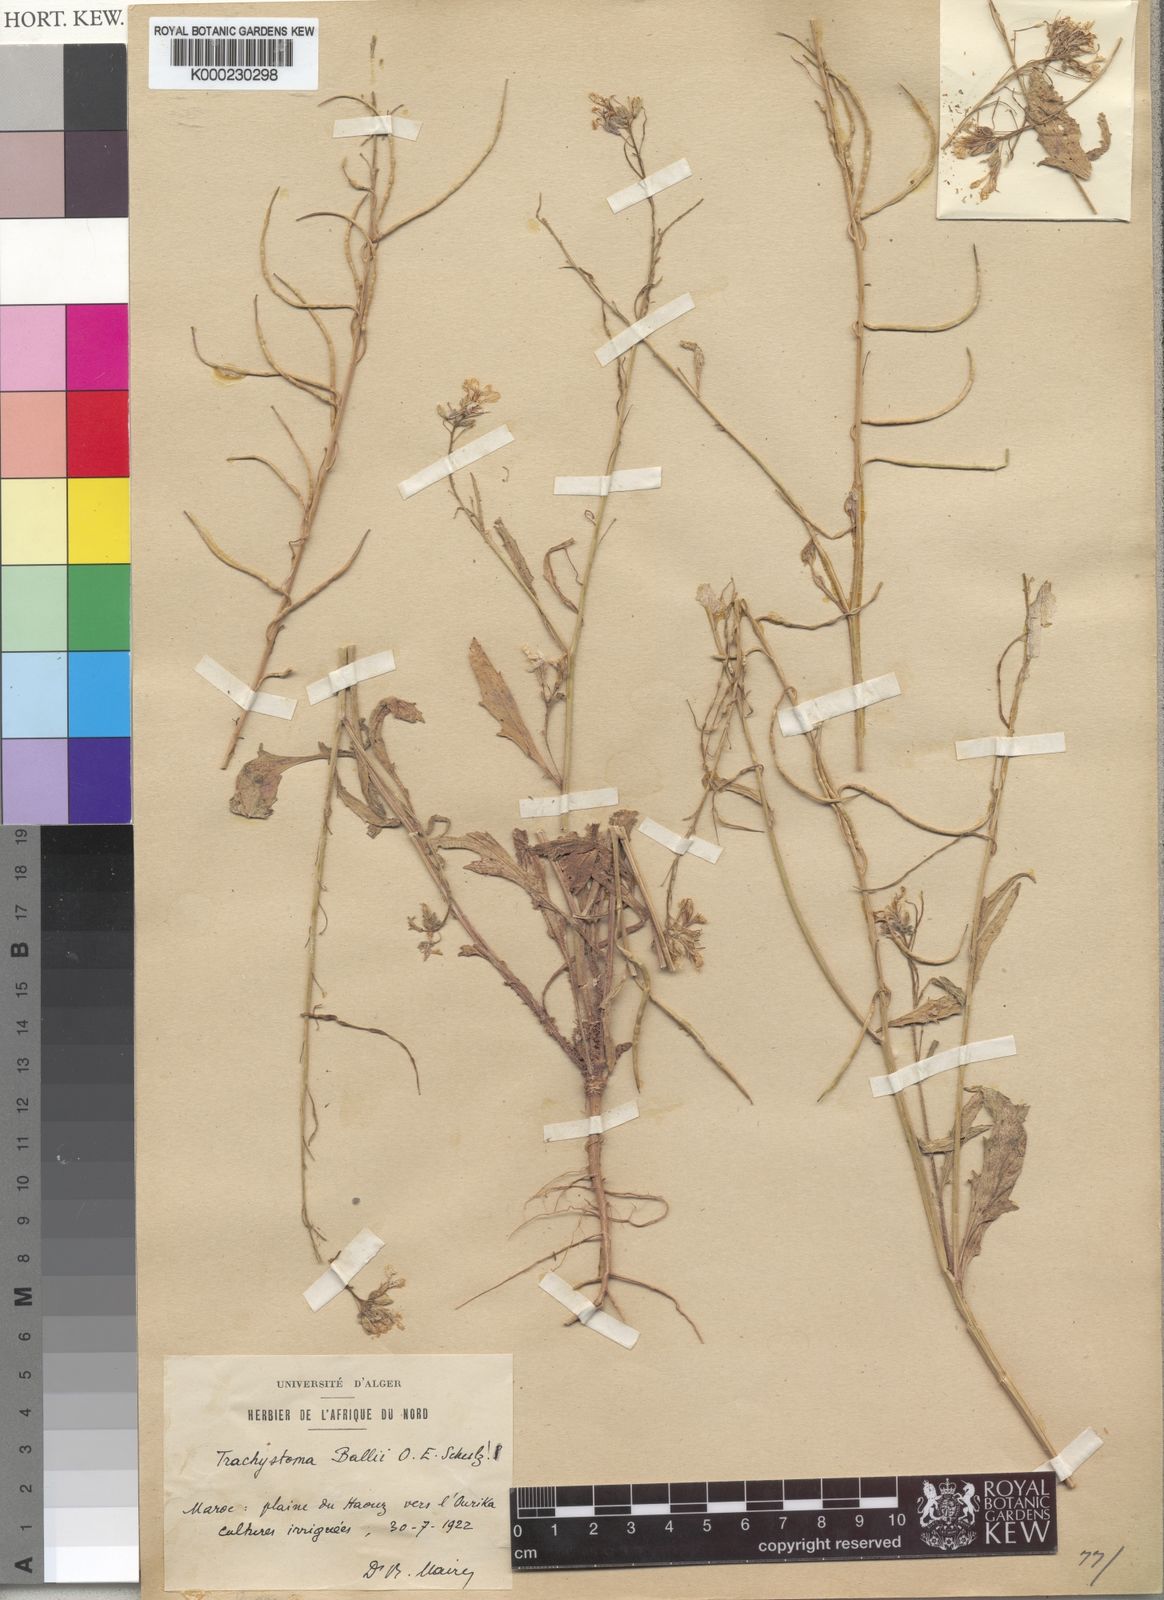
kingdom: Plantae
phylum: Tracheophyta
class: Magnoliopsida
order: Brassicales
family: Brassicaceae
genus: Trachystoma
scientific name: Trachystoma ballii
